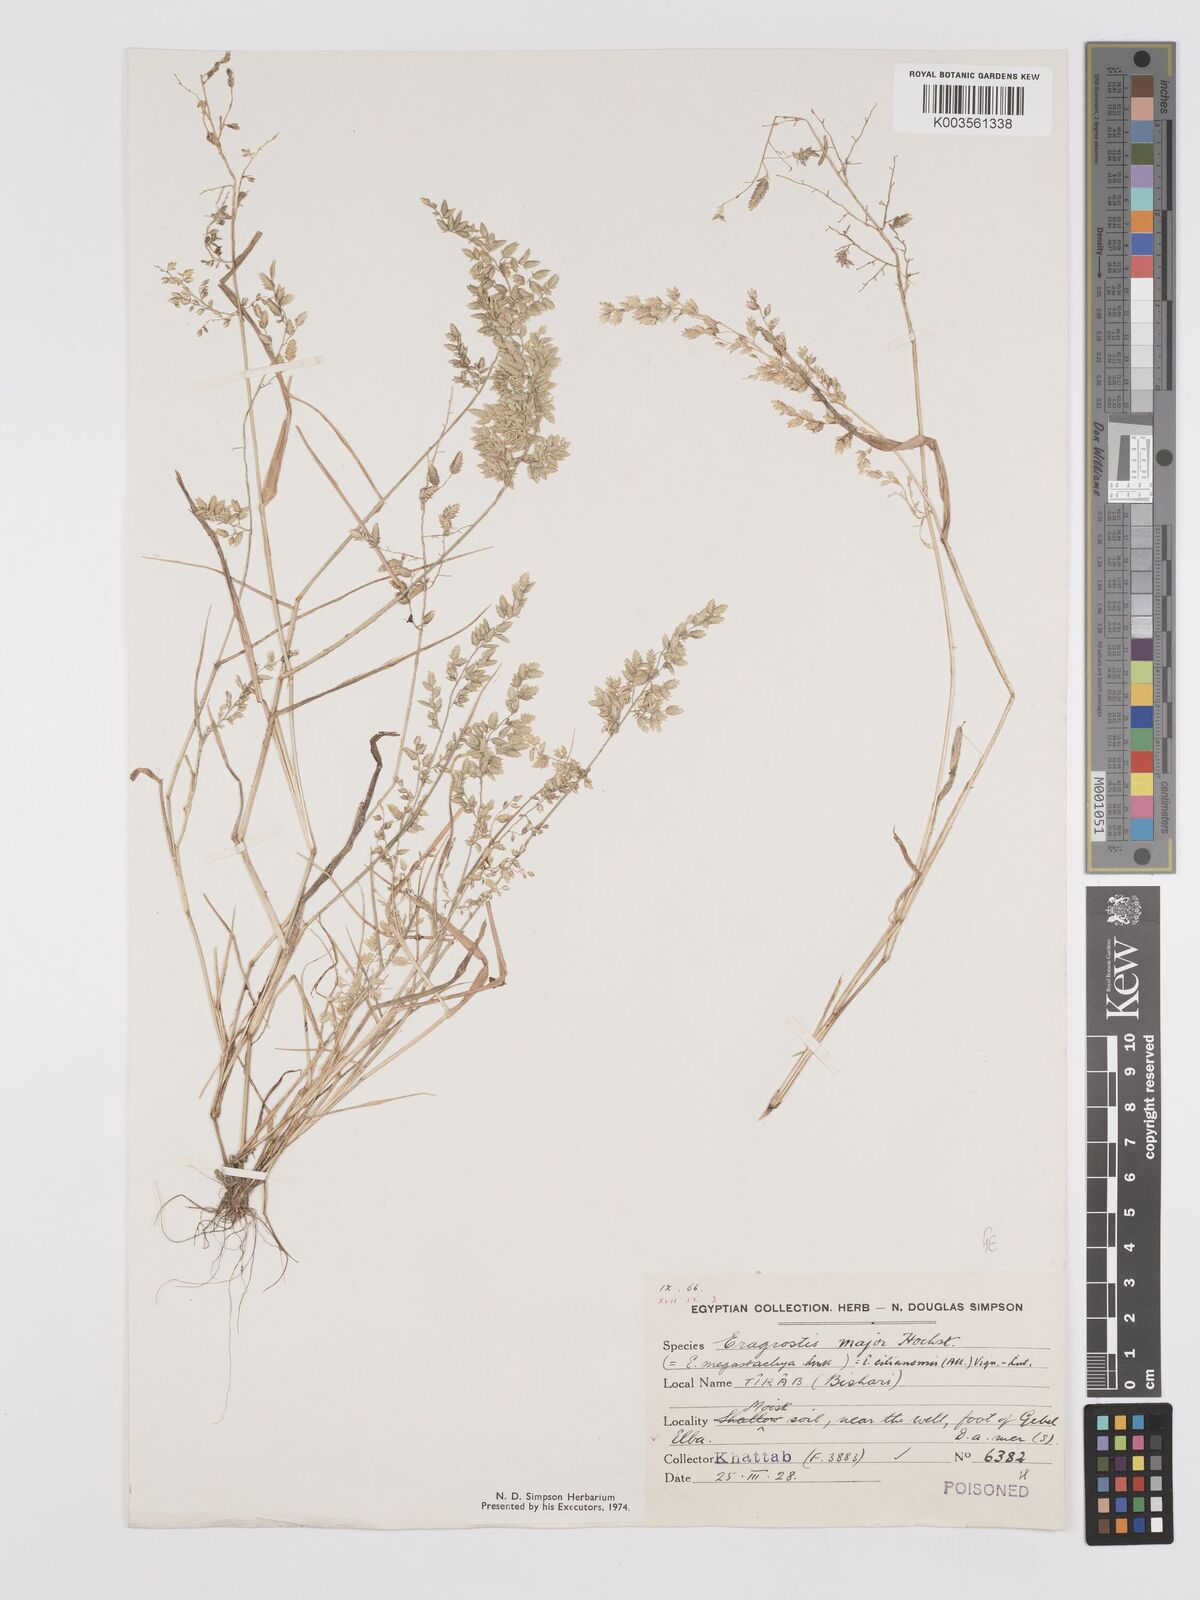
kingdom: Plantae
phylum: Tracheophyta
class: Liliopsida
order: Poales
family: Poaceae
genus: Eragrostis
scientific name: Eragrostis cilianensis
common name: Stinkgrass
